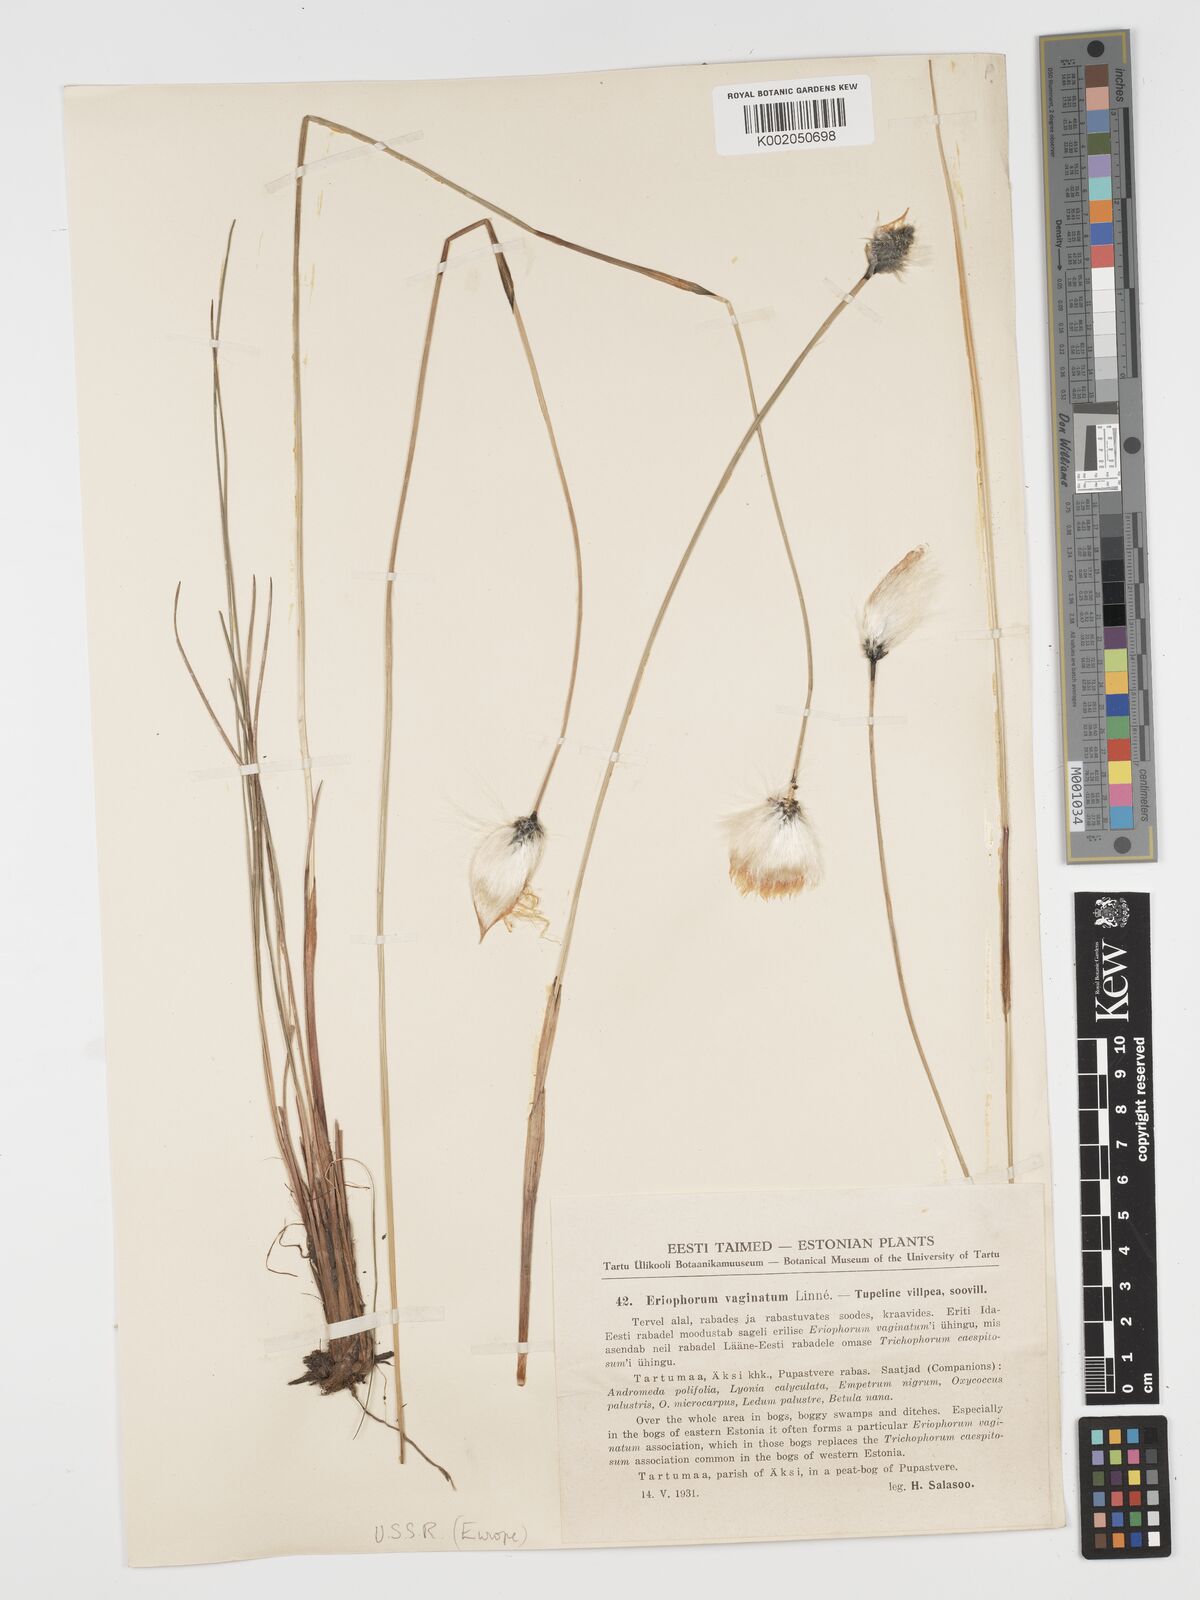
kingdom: Plantae
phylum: Tracheophyta
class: Liliopsida
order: Poales
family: Cyperaceae
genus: Eriophorum
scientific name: Eriophorum vaginatum
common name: Hare's-tail cottongrass
